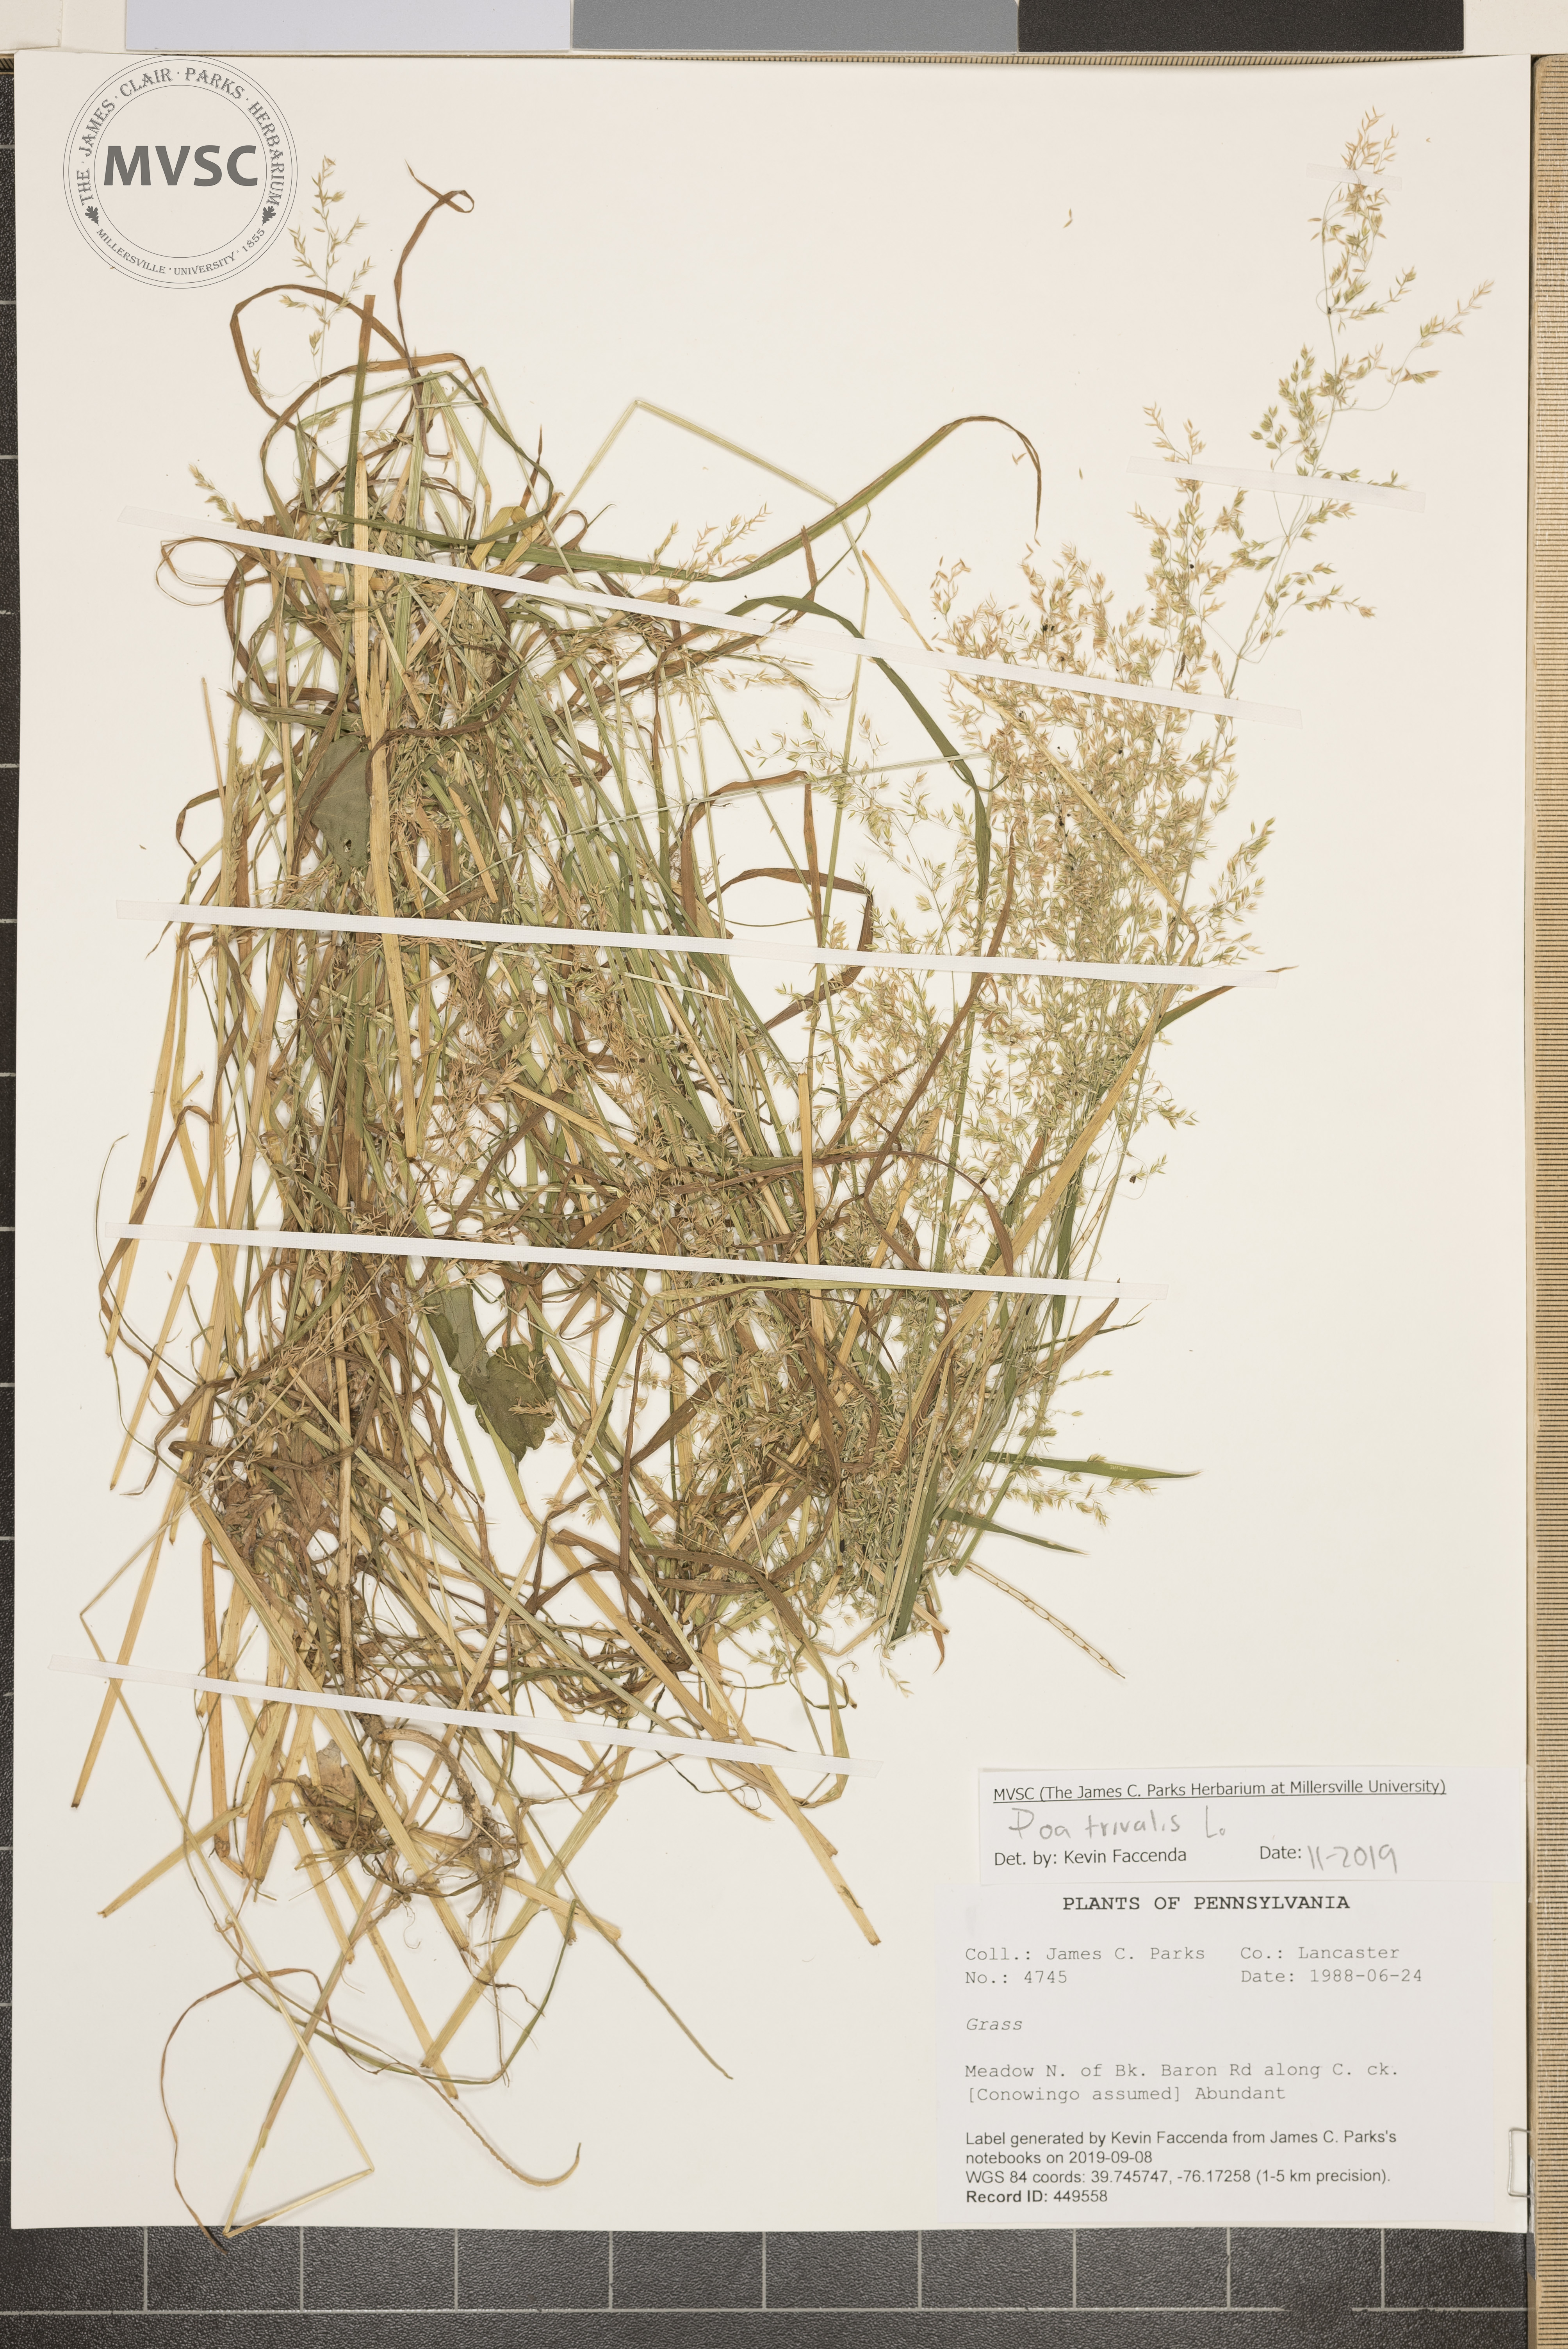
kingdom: Plantae
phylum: Tracheophyta
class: Liliopsida
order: Poales
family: Poaceae
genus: Poa
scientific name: Poa trivialis
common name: Rough bluegrass
